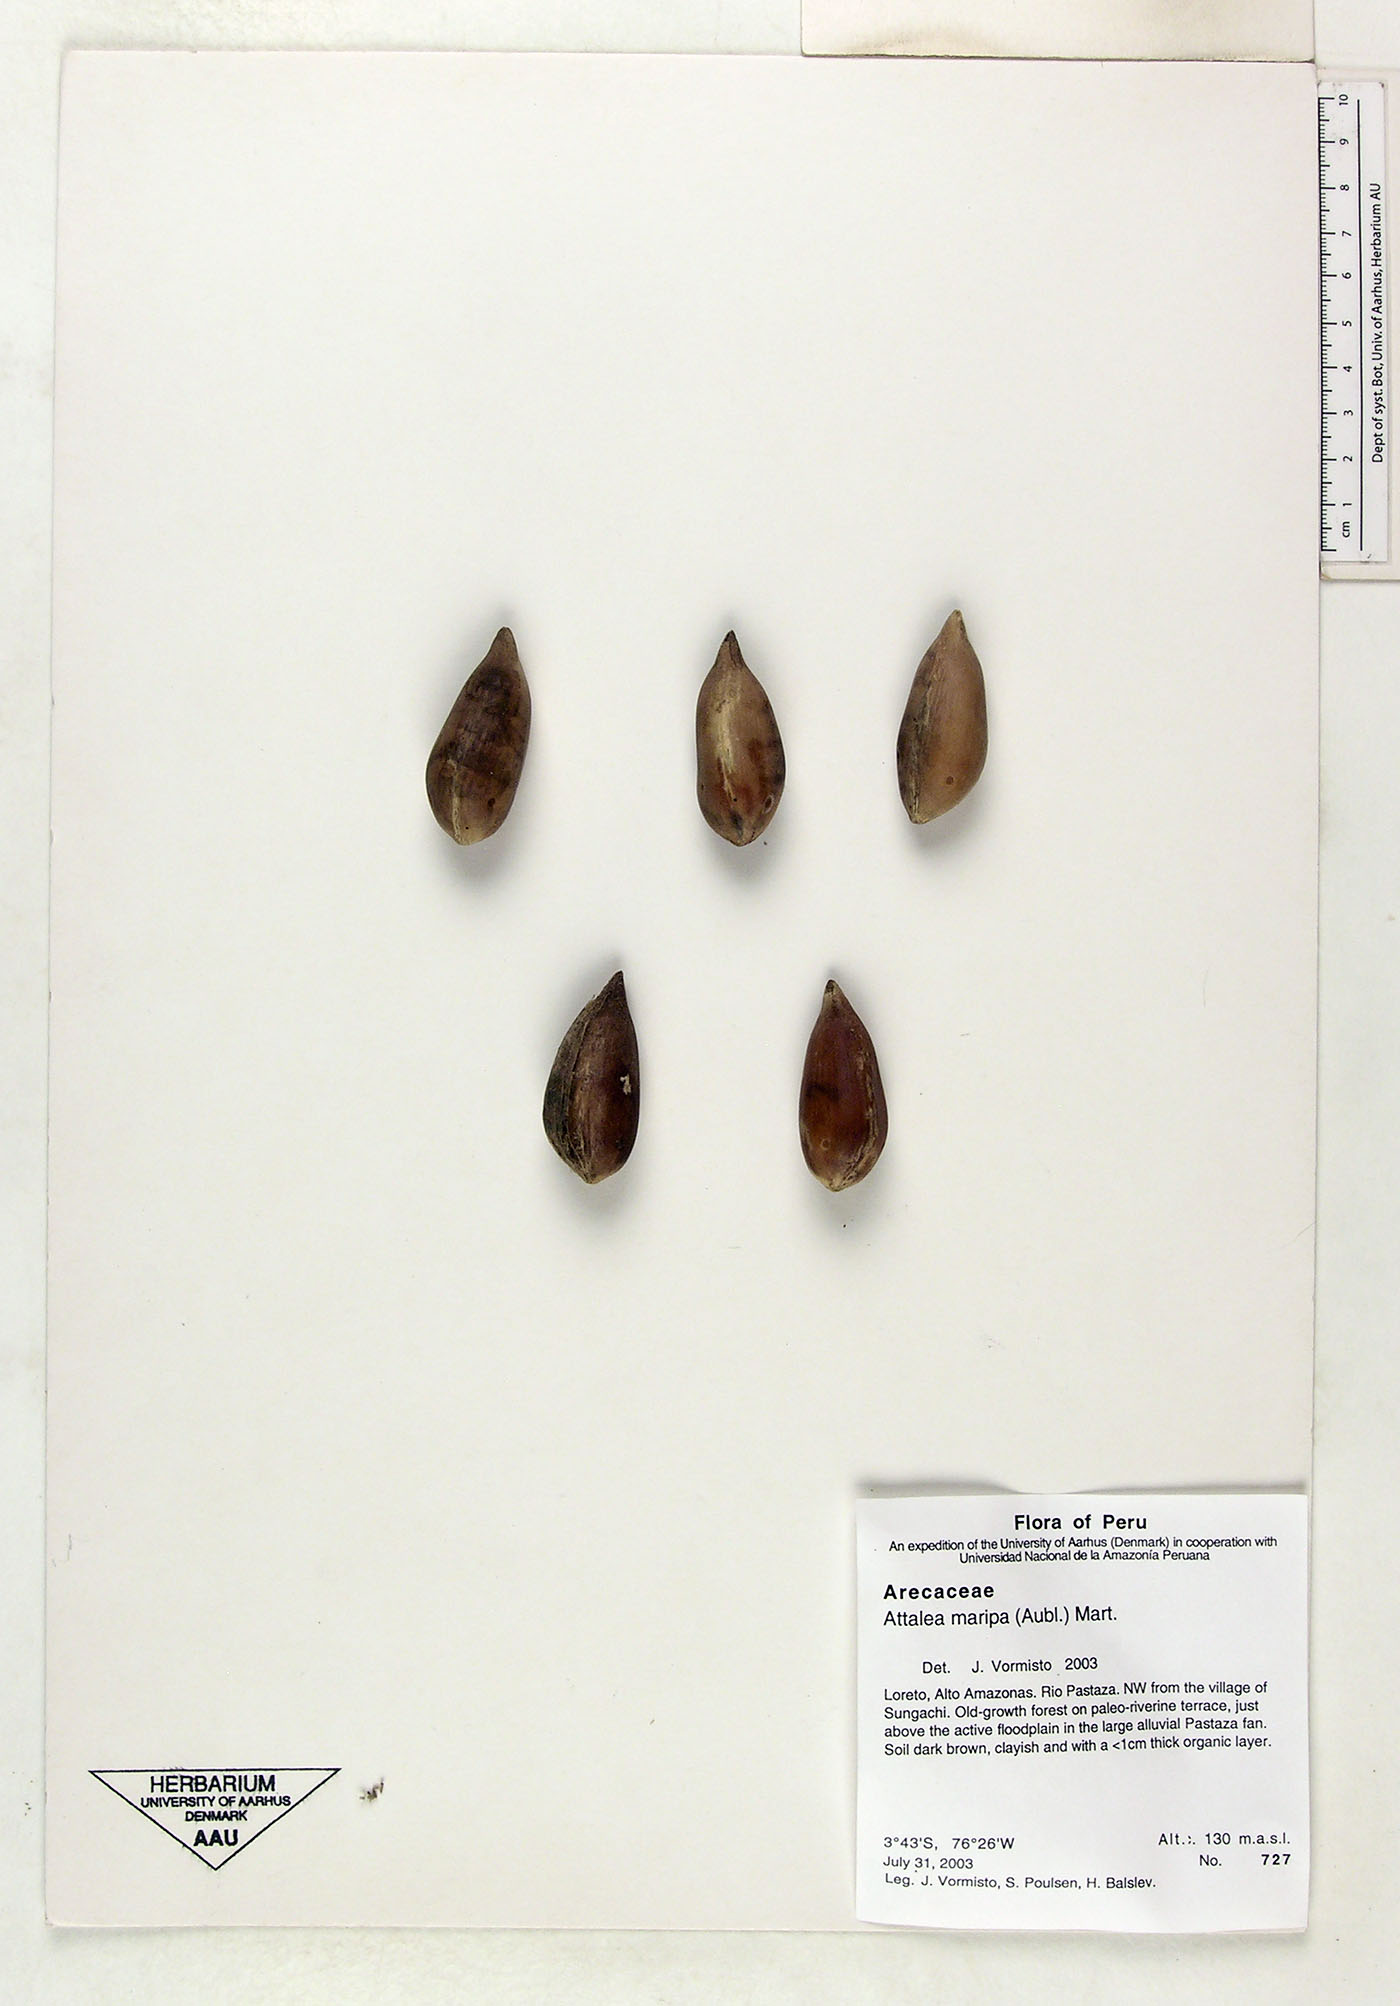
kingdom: Plantae
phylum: Tracheophyta
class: Liliopsida
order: Arecales
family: Arecaceae
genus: Attalea
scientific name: Attalea maripa
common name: Maripa palm
